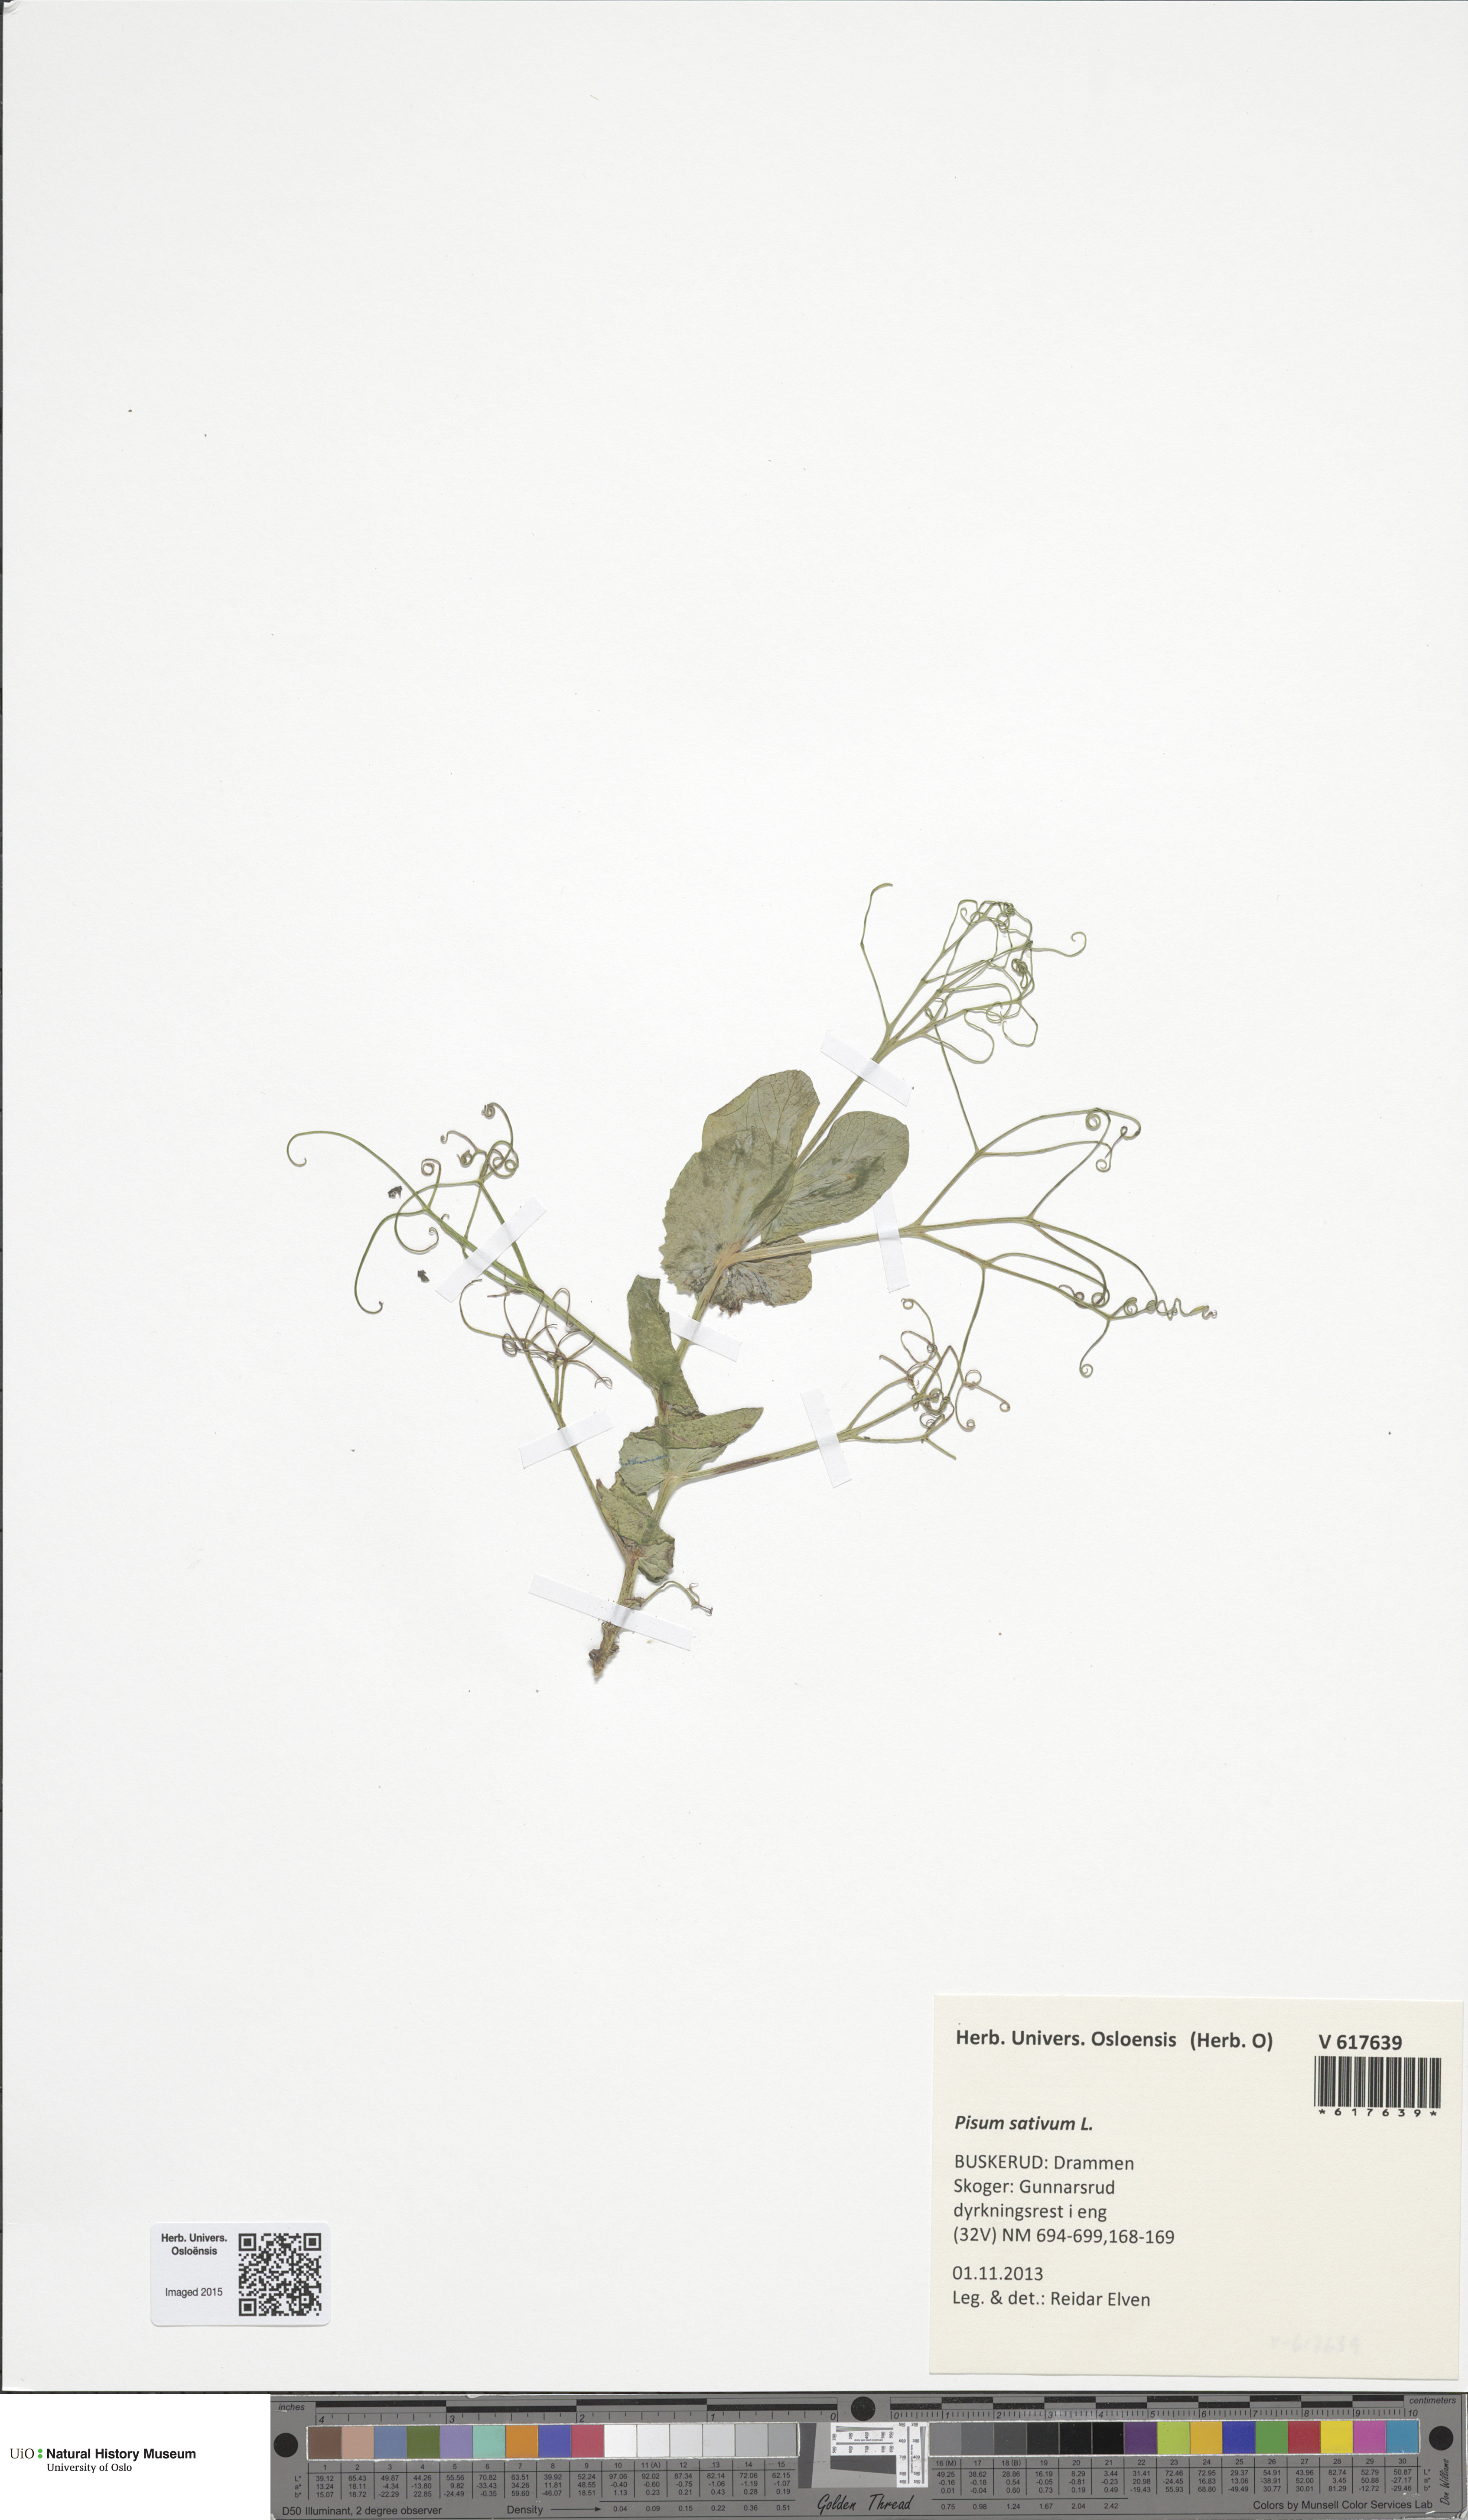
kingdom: Plantae
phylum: Tracheophyta
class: Magnoliopsida
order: Fabales
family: Fabaceae
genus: Lathyrus
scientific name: Lathyrus oleraceus
